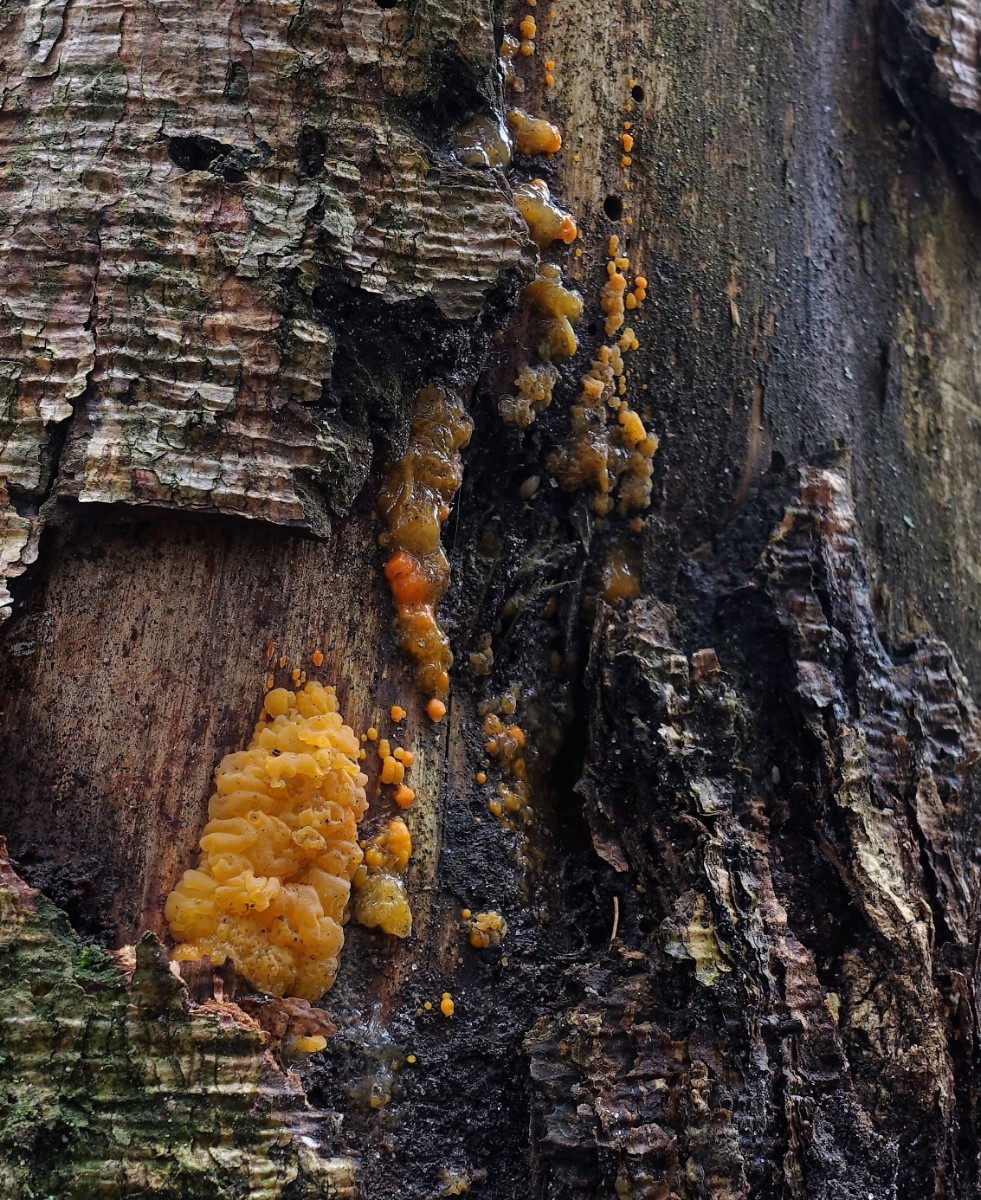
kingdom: Fungi
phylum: Basidiomycota
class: Dacrymycetes
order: Dacrymycetales
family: Dacrymycetaceae
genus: Dacrymyces
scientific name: Dacrymyces stillatus
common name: almindelig tåresvamp
